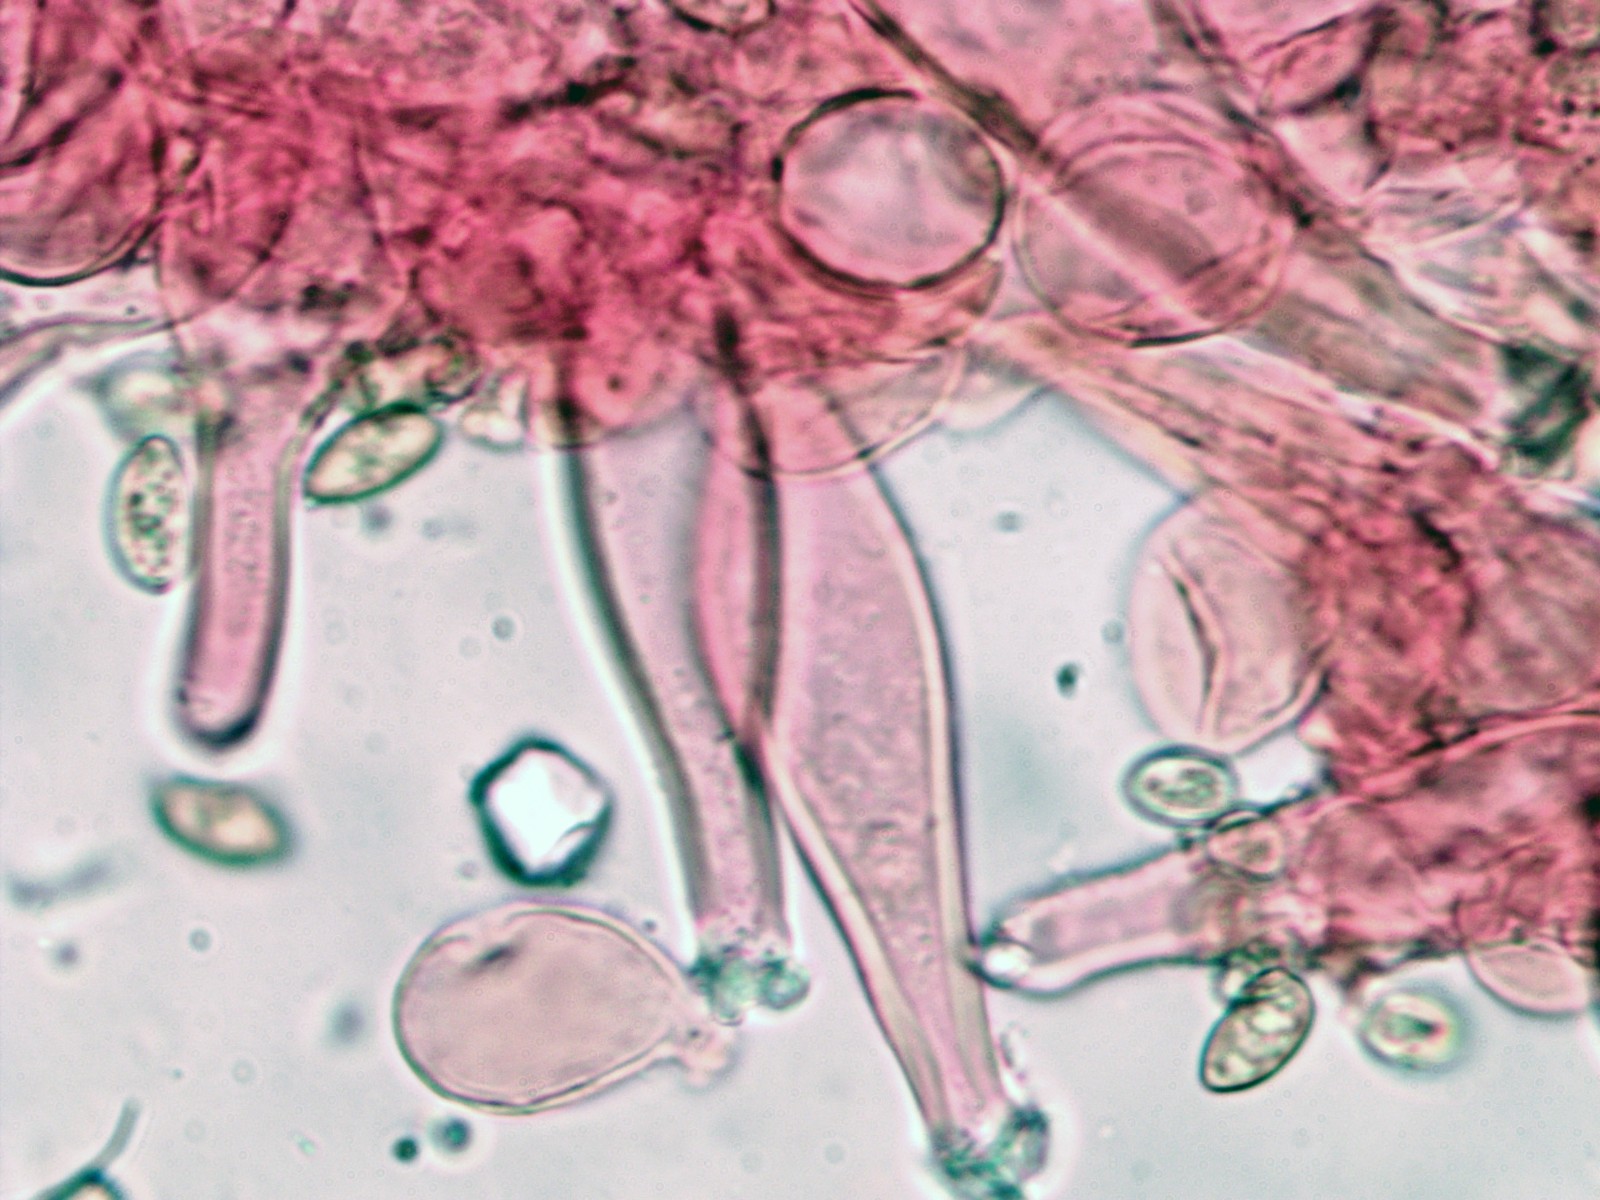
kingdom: Fungi
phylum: Basidiomycota
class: Agaricomycetes
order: Agaricales
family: Inocybaceae
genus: Inocybe
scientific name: Inocybe
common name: trævlhat
